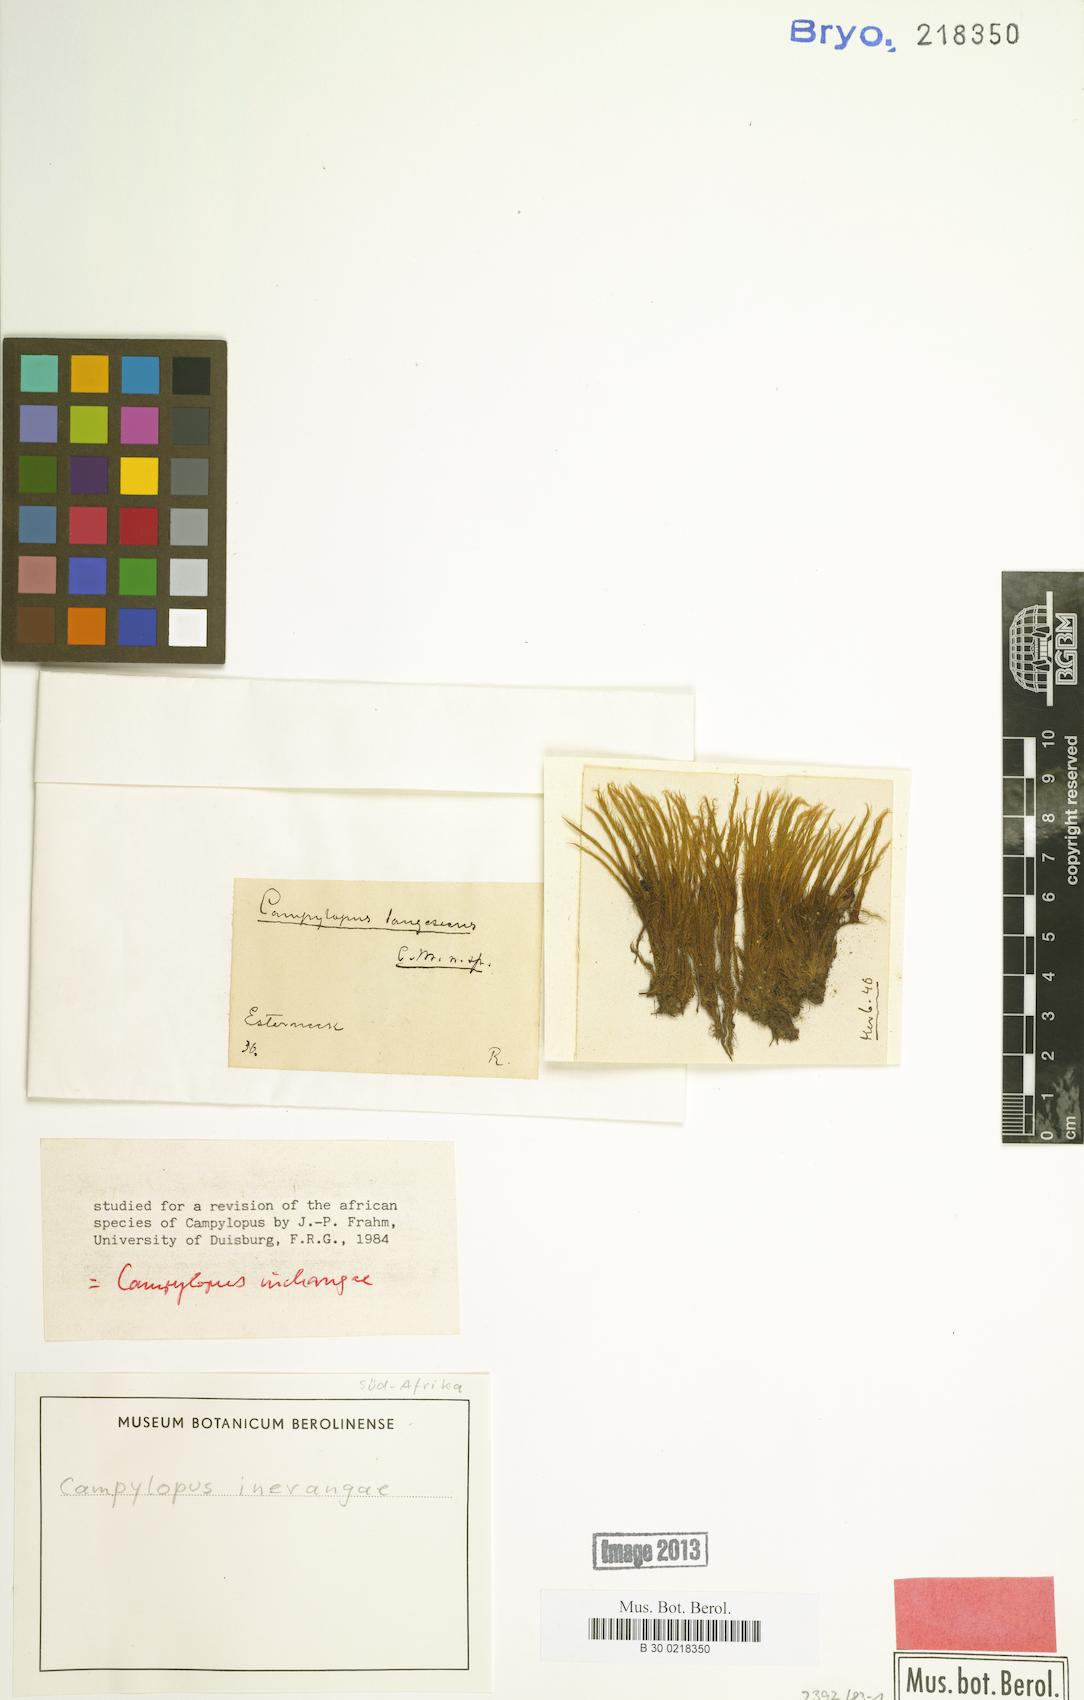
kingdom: Plantae
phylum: Bryophyta
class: Bryopsida
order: Dicranales
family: Leucobryaceae
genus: Campylopus
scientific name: Campylopus robillardii
